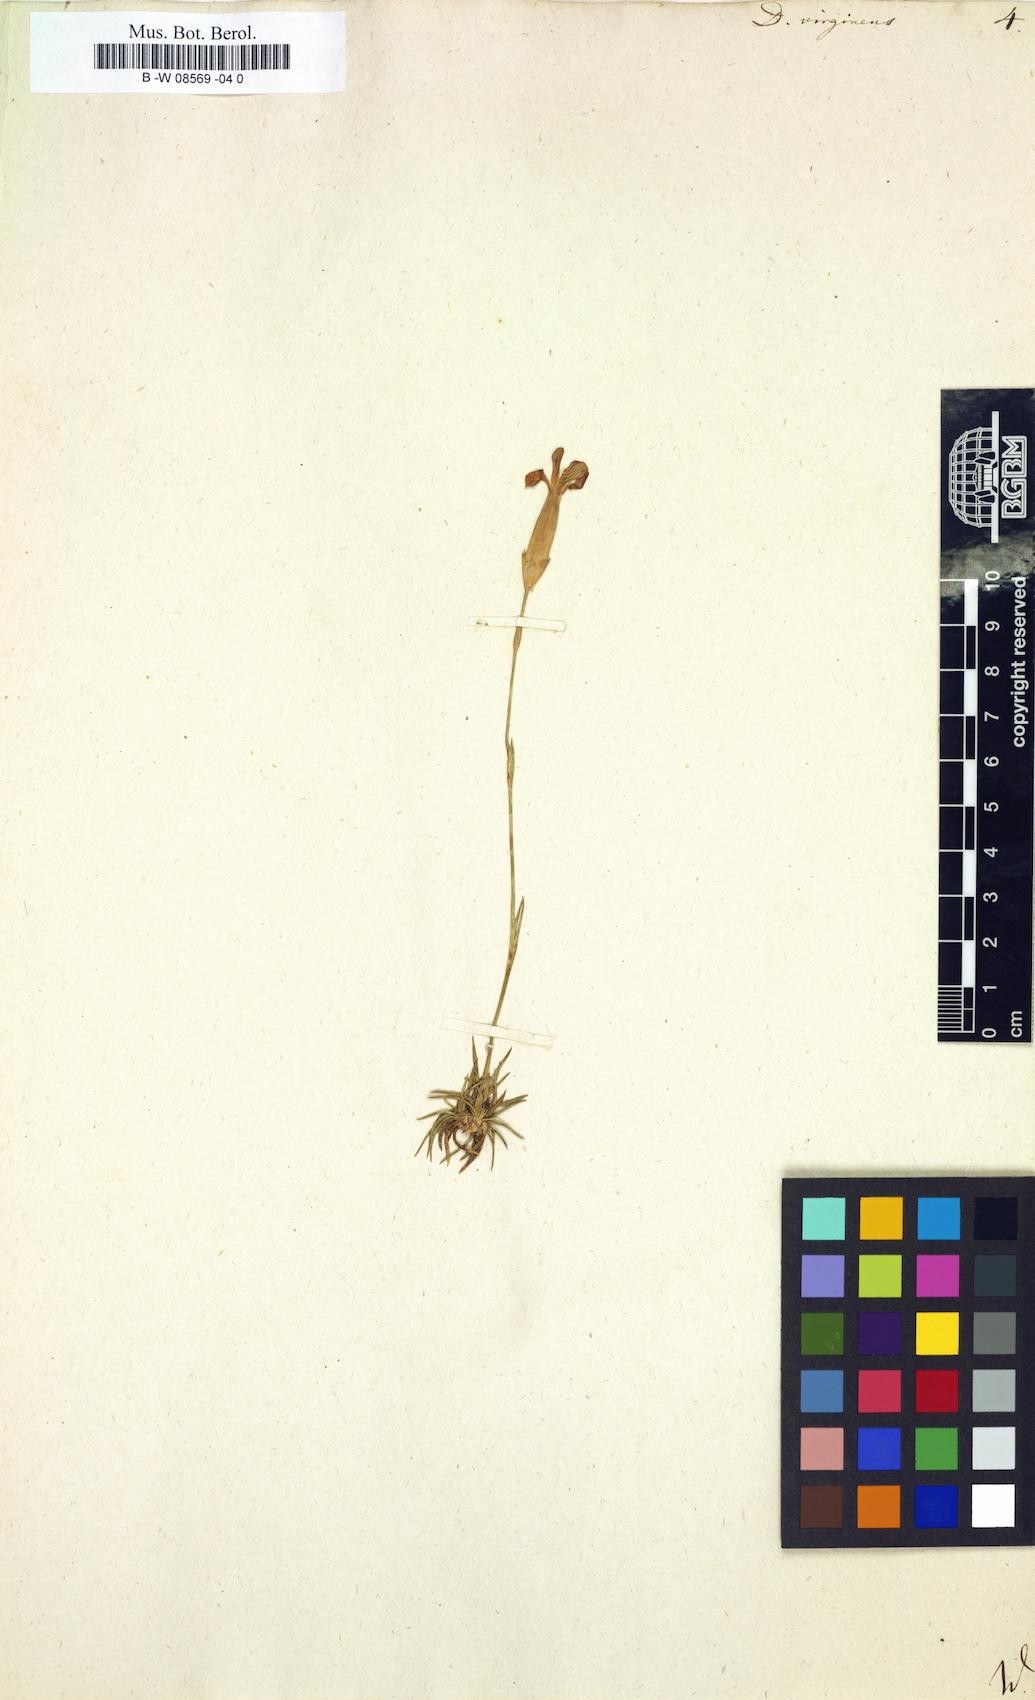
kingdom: Plantae
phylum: Tracheophyta
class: Magnoliopsida
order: Caryophyllales
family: Caryophyllaceae
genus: Dianthus
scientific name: Dianthus virgineus
